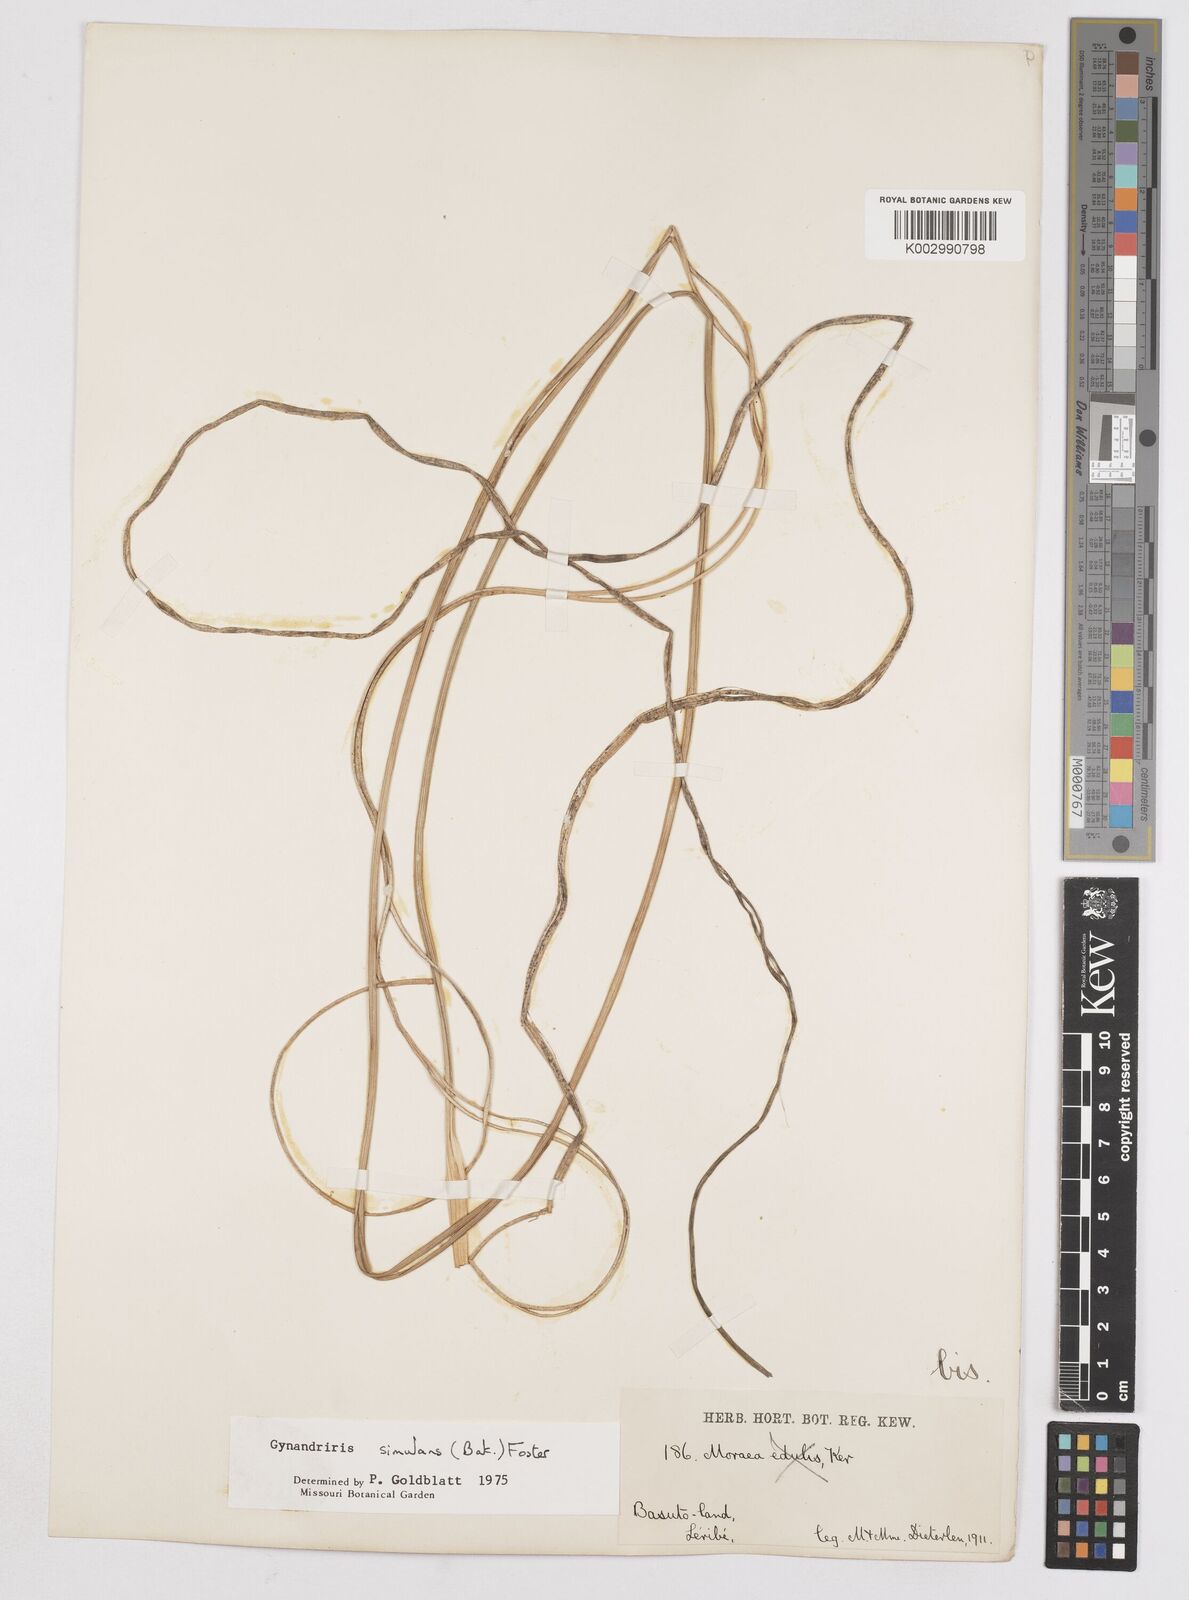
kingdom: Plantae
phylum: Tracheophyta
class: Liliopsida
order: Asparagales
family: Iridaceae
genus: Moraea
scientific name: Moraea simulans
